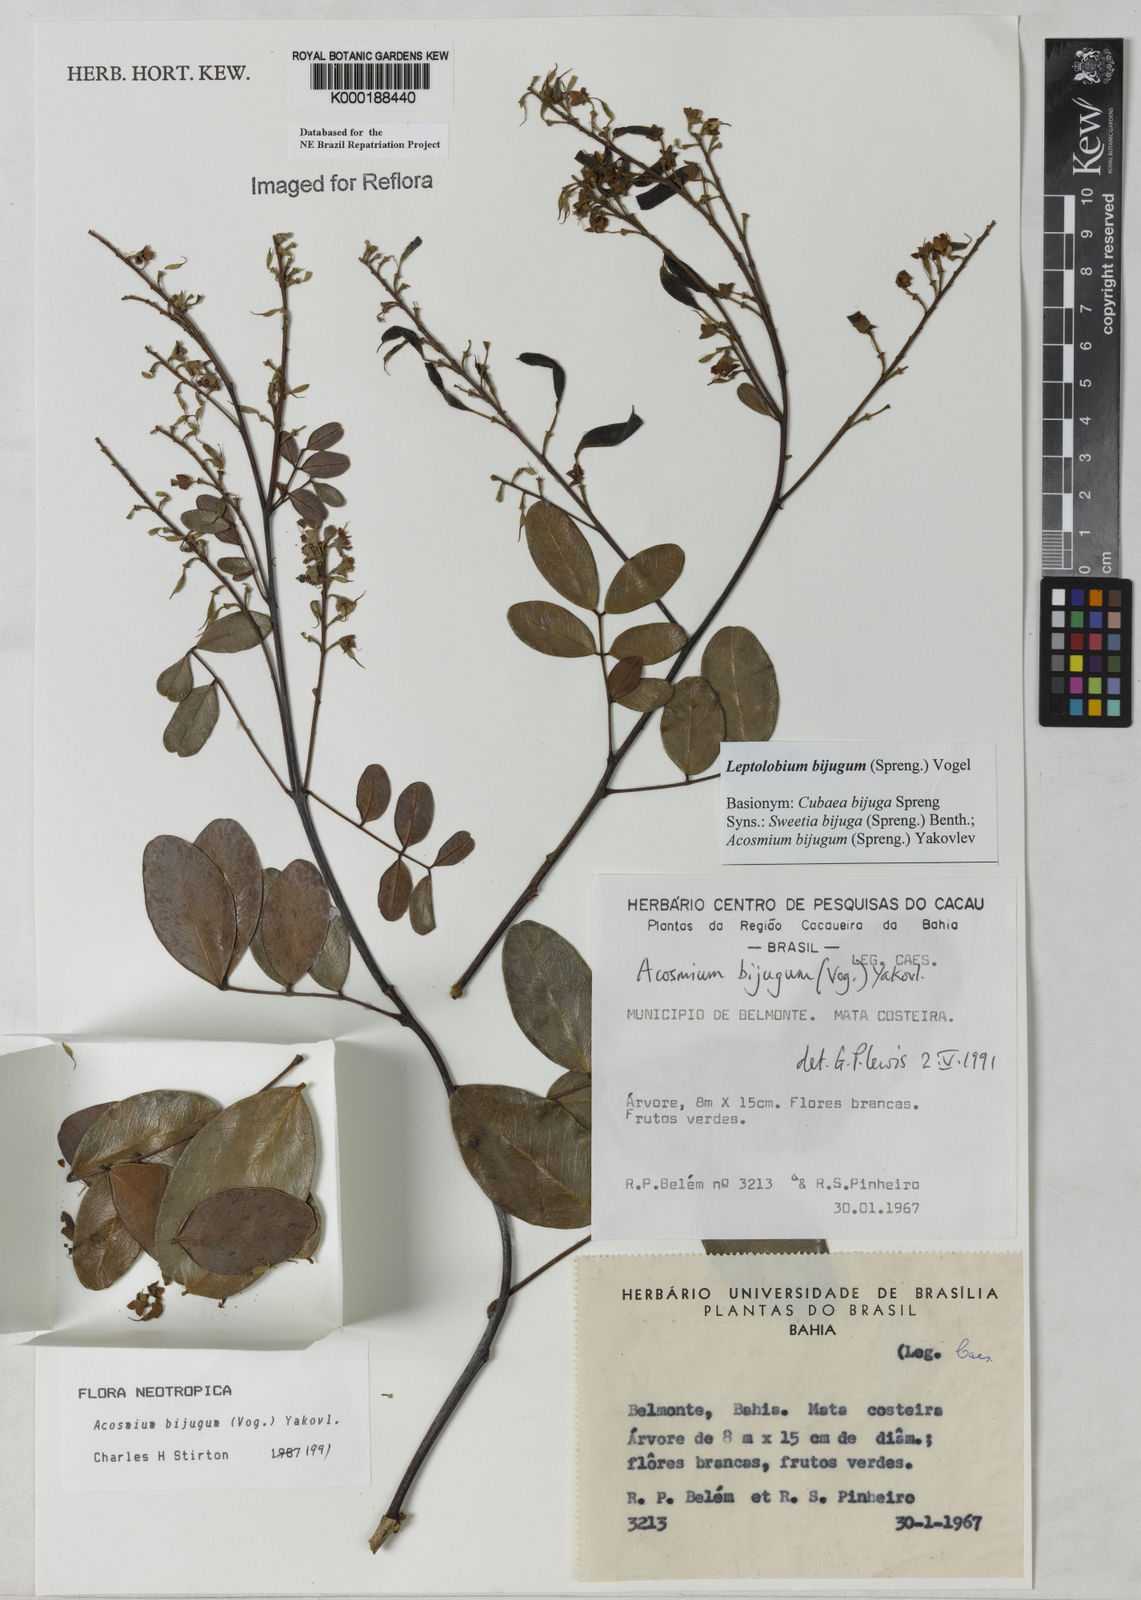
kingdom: Plantae
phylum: Tracheophyta
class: Magnoliopsida
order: Fabales
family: Fabaceae
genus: Leptolobium
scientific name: Leptolobium bijugum
